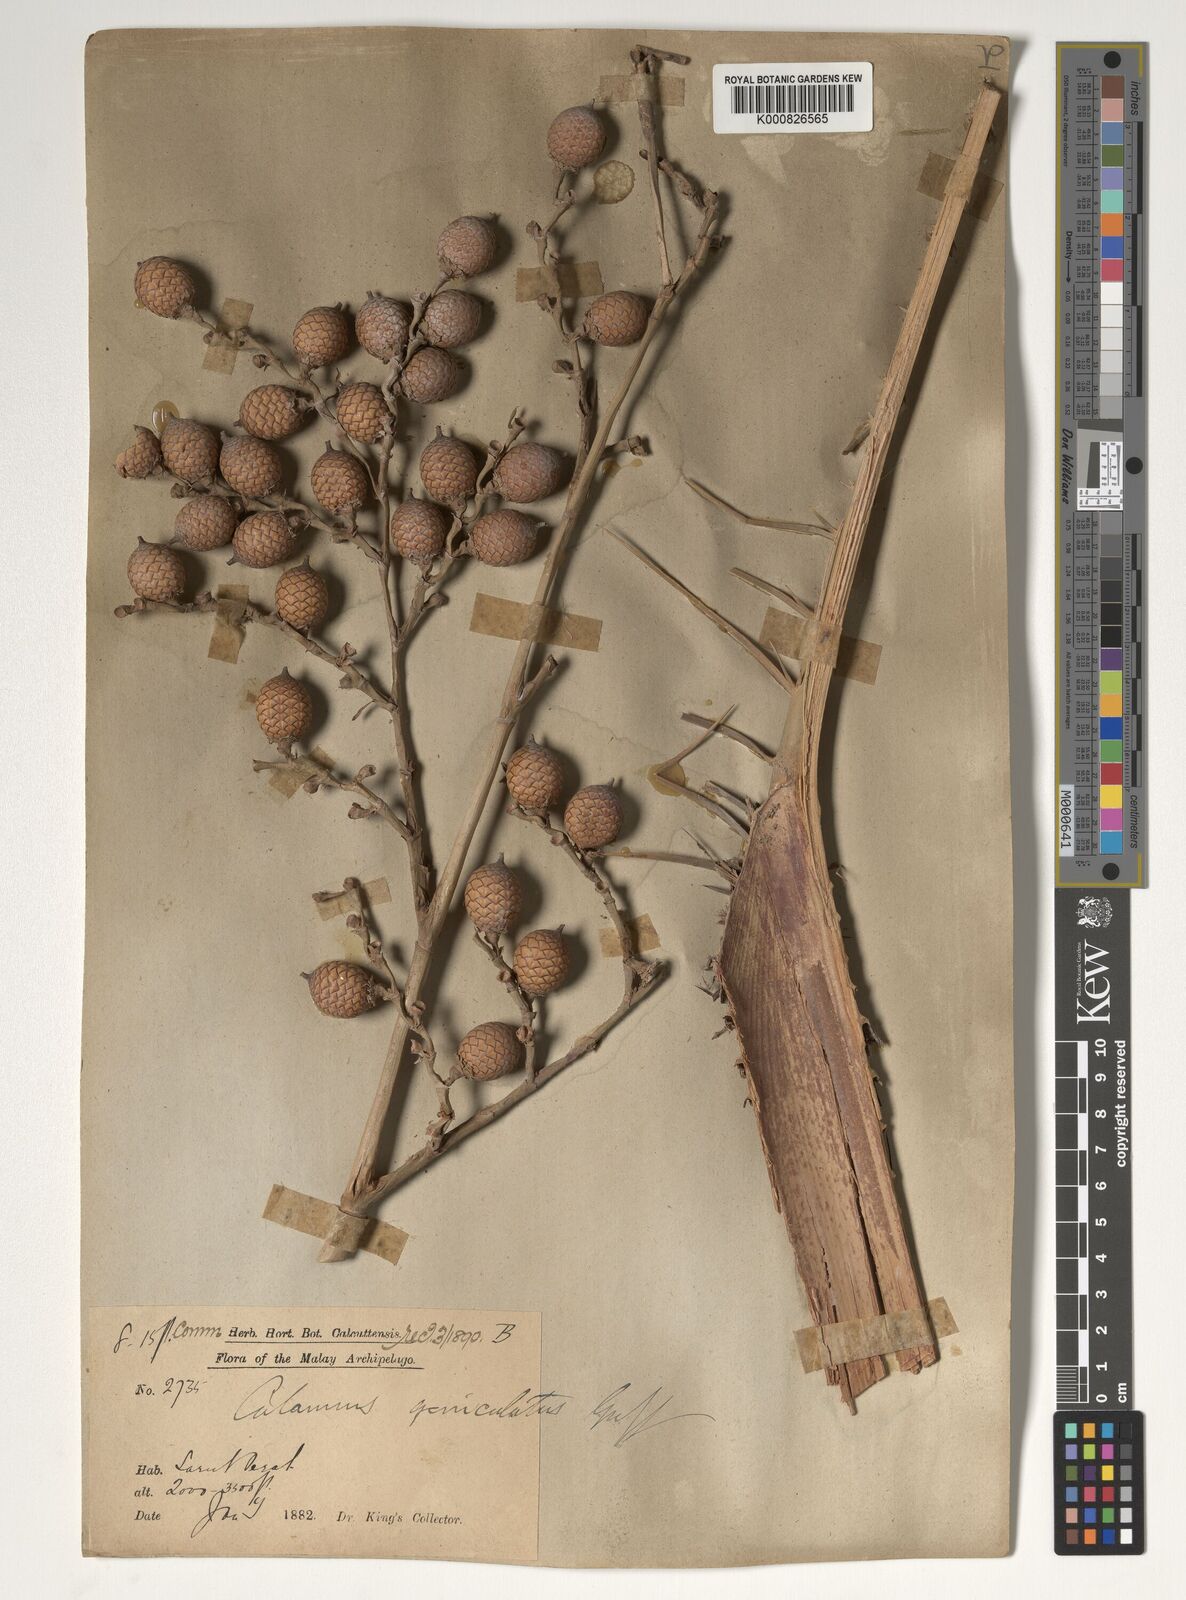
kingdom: Plantae
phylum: Tracheophyta
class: Liliopsida
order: Arecales
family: Arecaceae
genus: Calamus
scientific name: Calamus geniculatus
